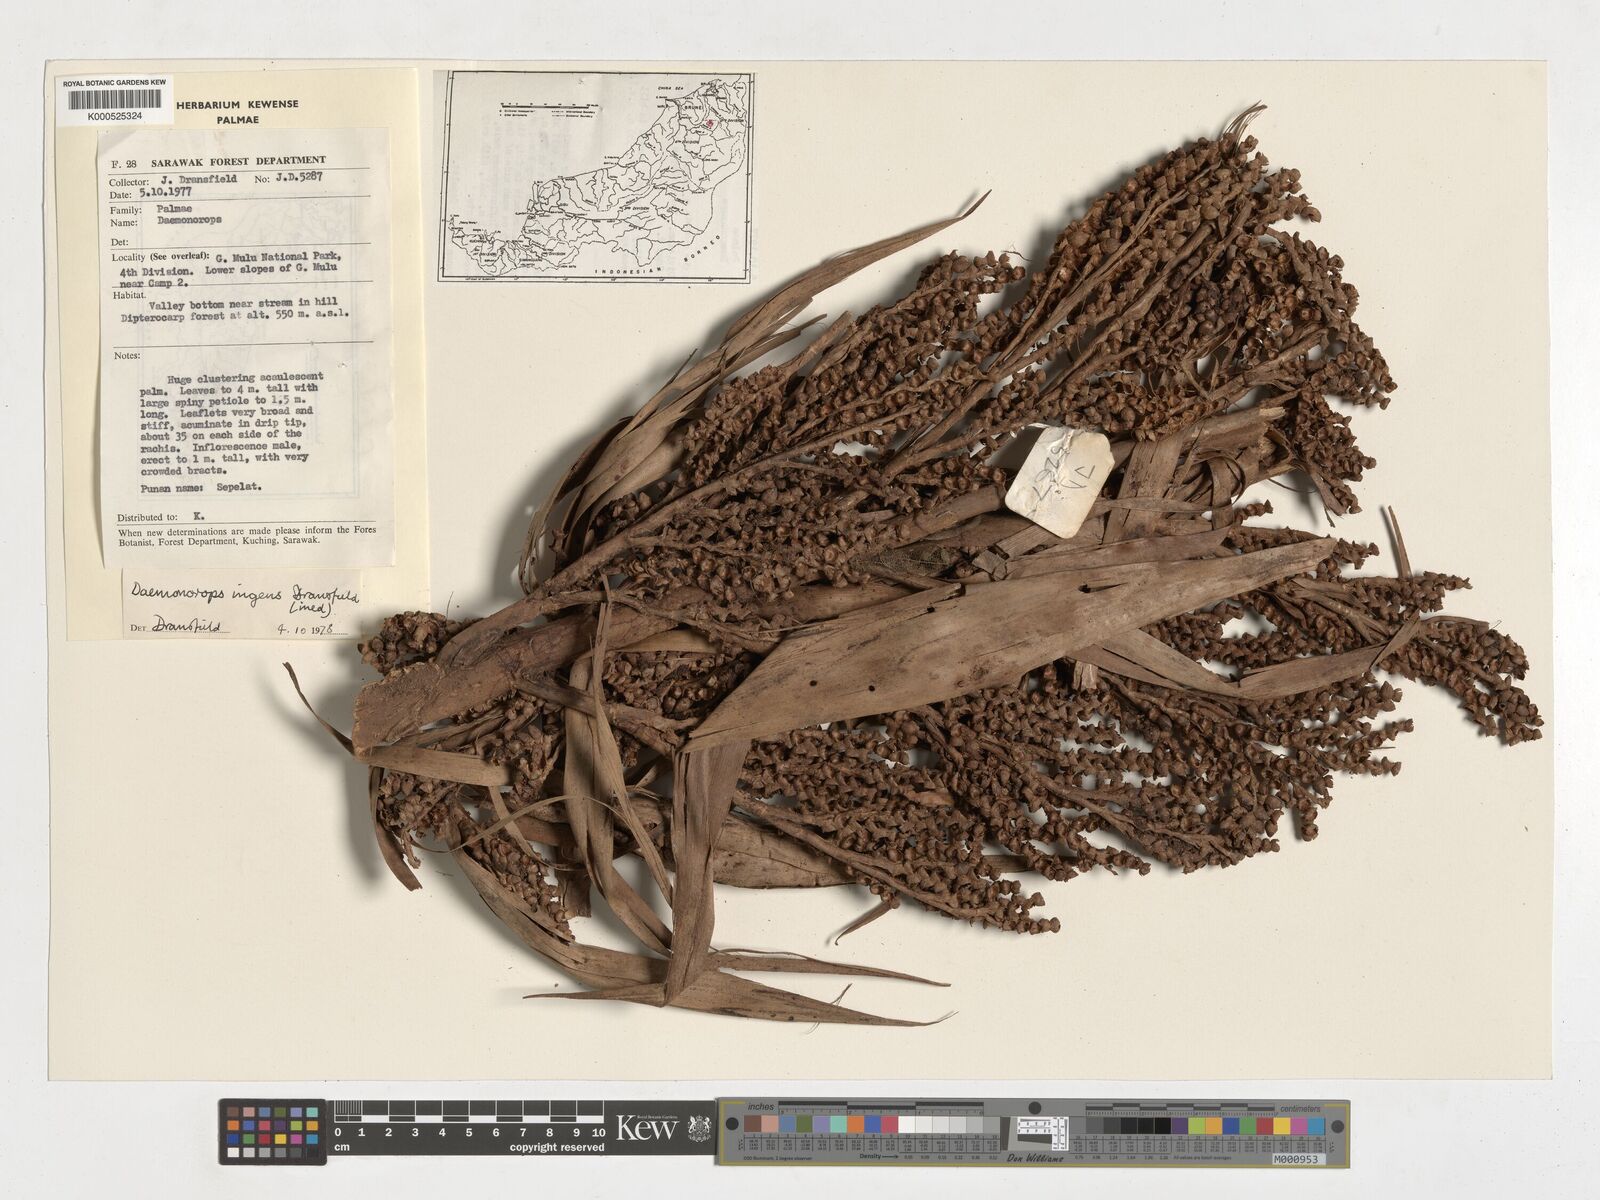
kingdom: Plantae
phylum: Tracheophyta
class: Liliopsida
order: Arecales
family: Arecaceae
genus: Calamus
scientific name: Calamus ingens
